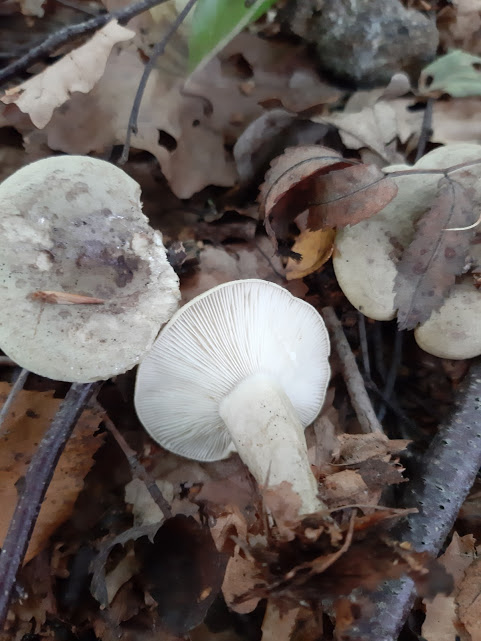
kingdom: Fungi
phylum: Basidiomycota
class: Agaricomycetes
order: Russulales
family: Russulaceae
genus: Lactarius
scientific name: Lactarius blennius
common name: dråbeplettet mælkehat
